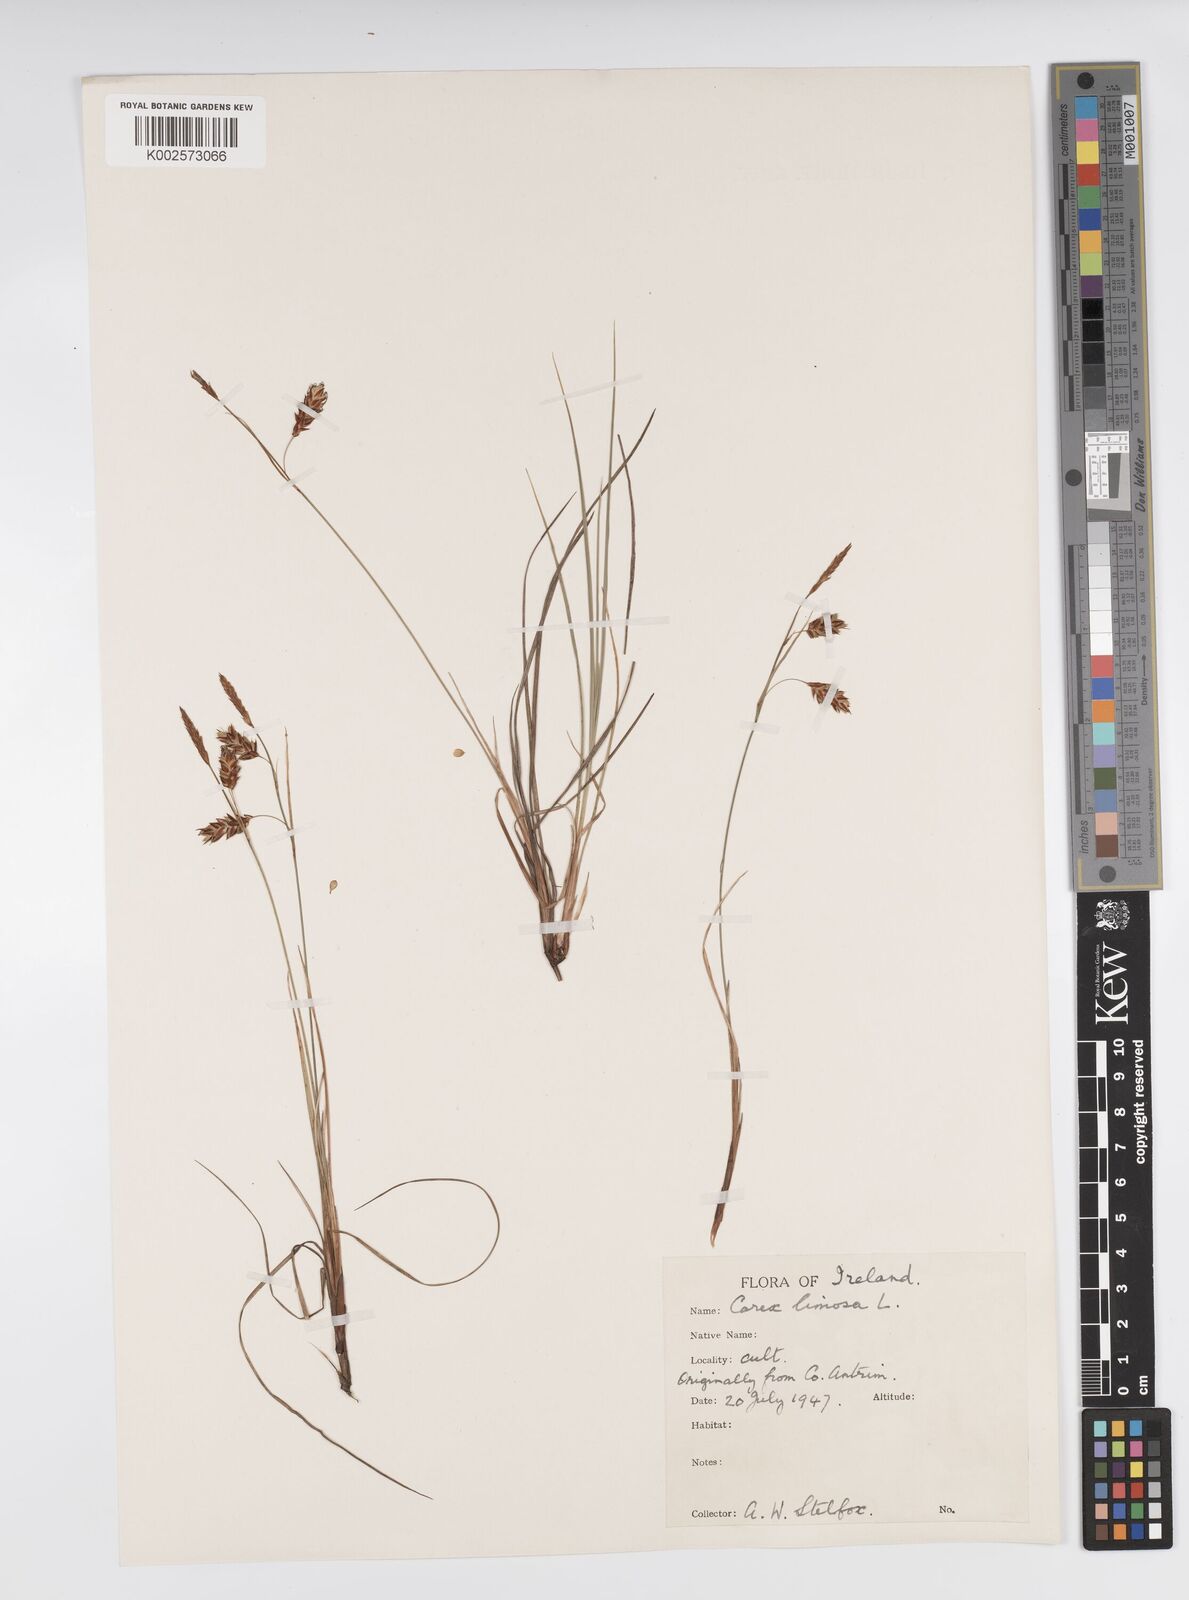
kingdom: Plantae
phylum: Tracheophyta
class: Liliopsida
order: Poales
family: Cyperaceae
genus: Carex
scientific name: Carex limosa
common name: Bog sedge
